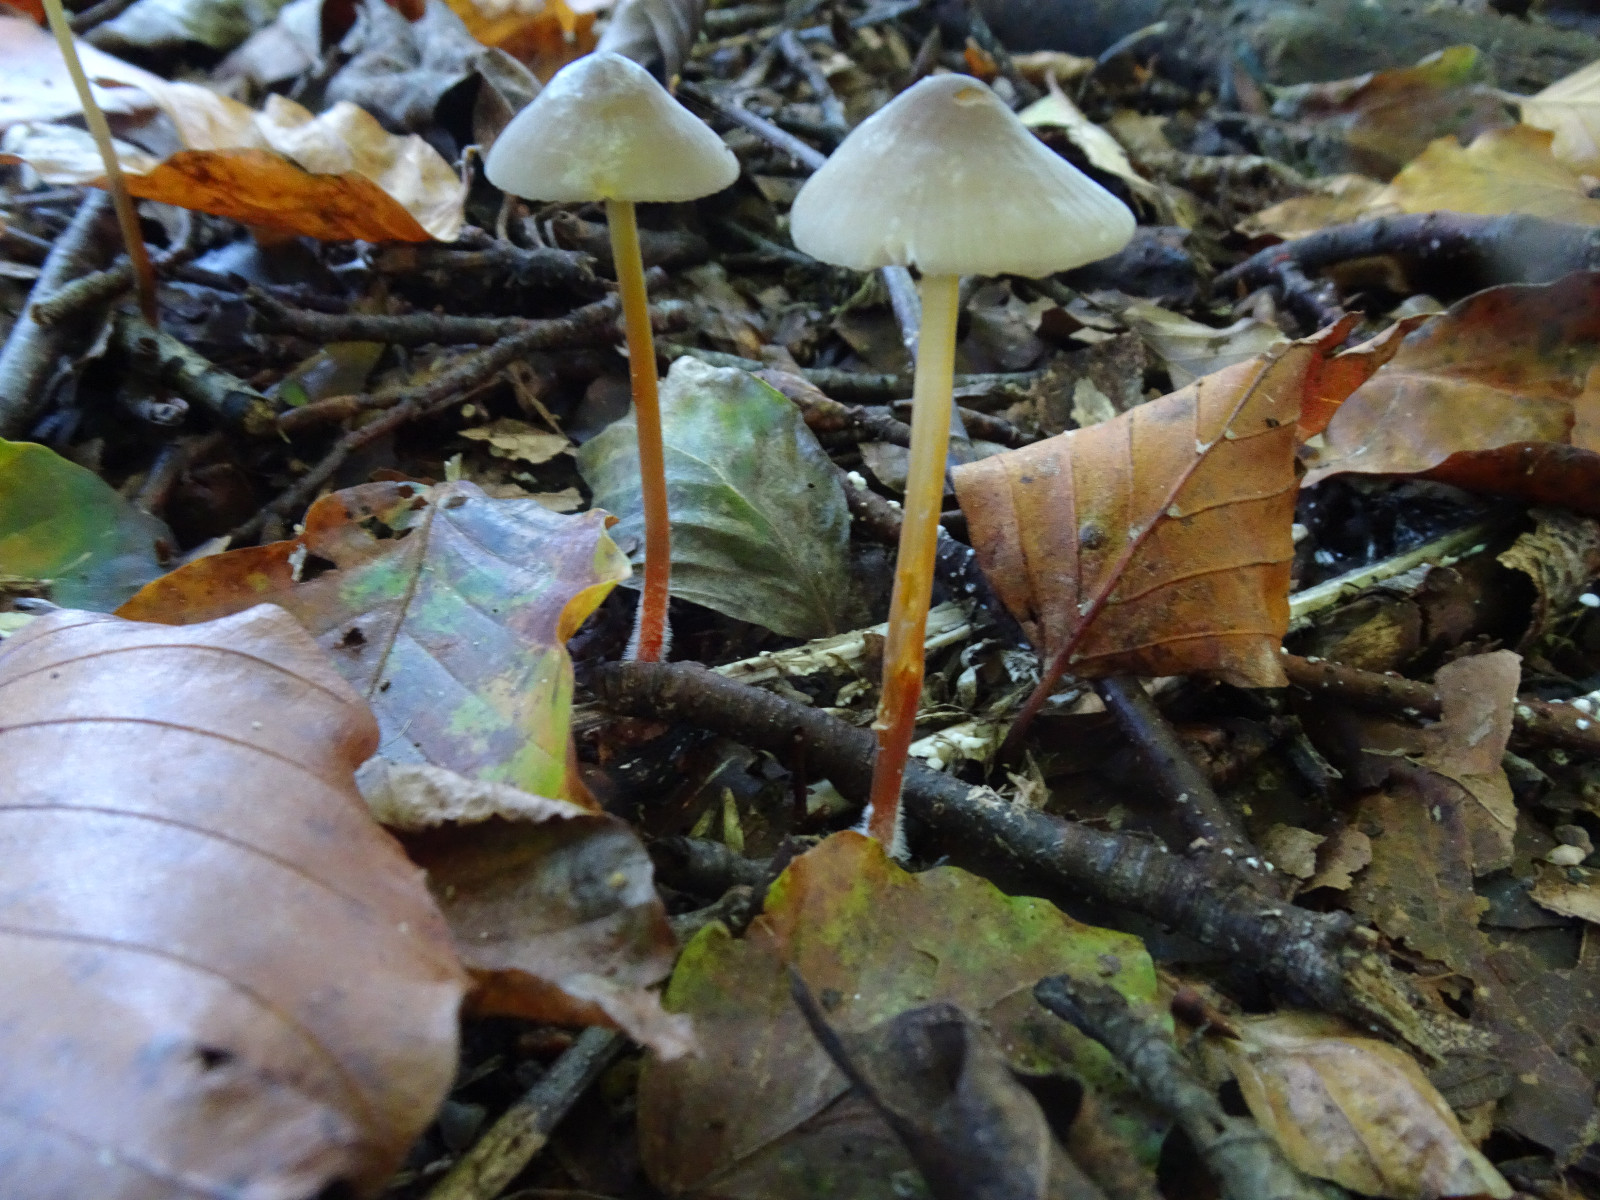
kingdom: Fungi
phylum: Basidiomycota
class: Agaricomycetes
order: Agaricales
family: Mycenaceae
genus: Mycena
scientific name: Mycena crocata
